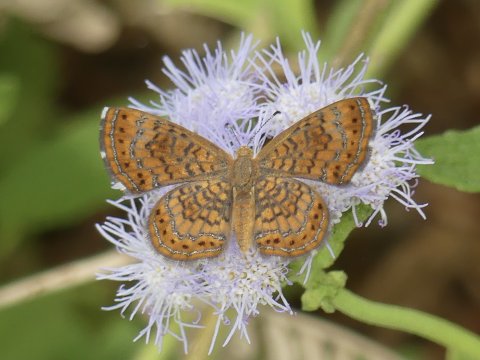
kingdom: Animalia
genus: Calephelis
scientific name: Calephelis arizonensis
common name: Arizona Metalmark
